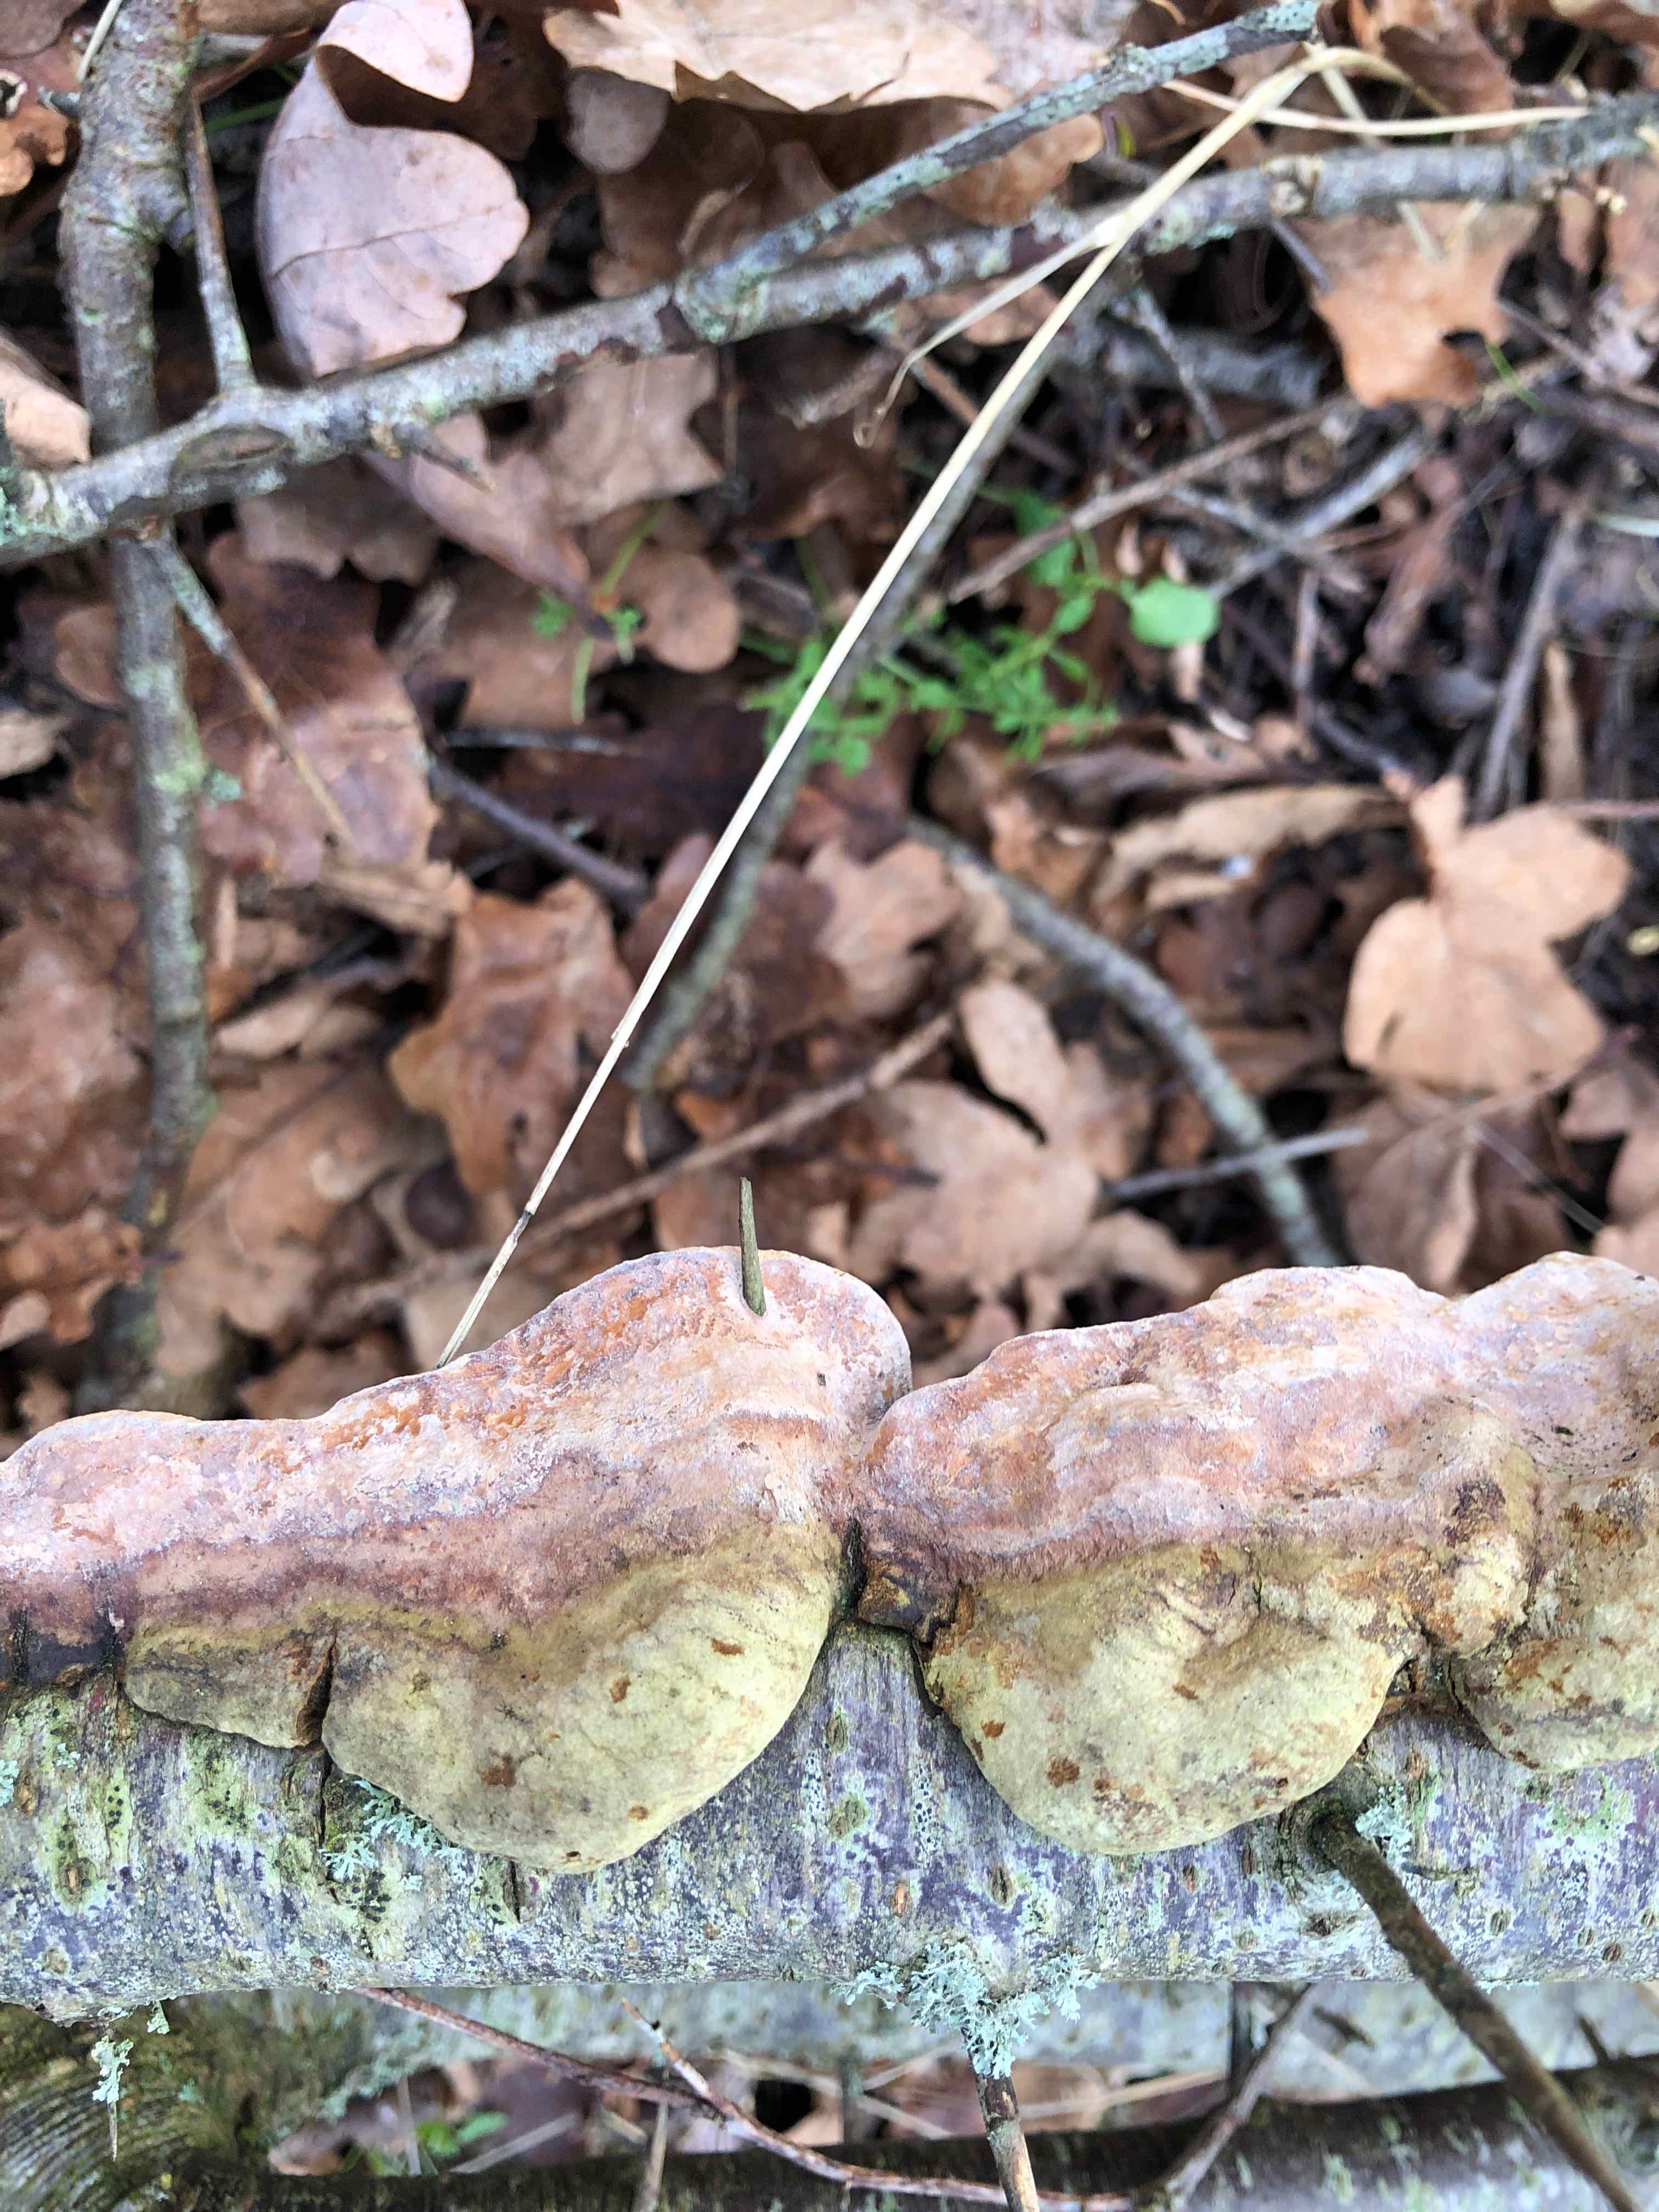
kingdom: Fungi
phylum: Basidiomycota
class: Agaricomycetes
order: Hymenochaetales
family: Hymenochaetaceae
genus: Phellinus
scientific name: Phellinus pomaceus
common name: blomme-ildporesvamp
